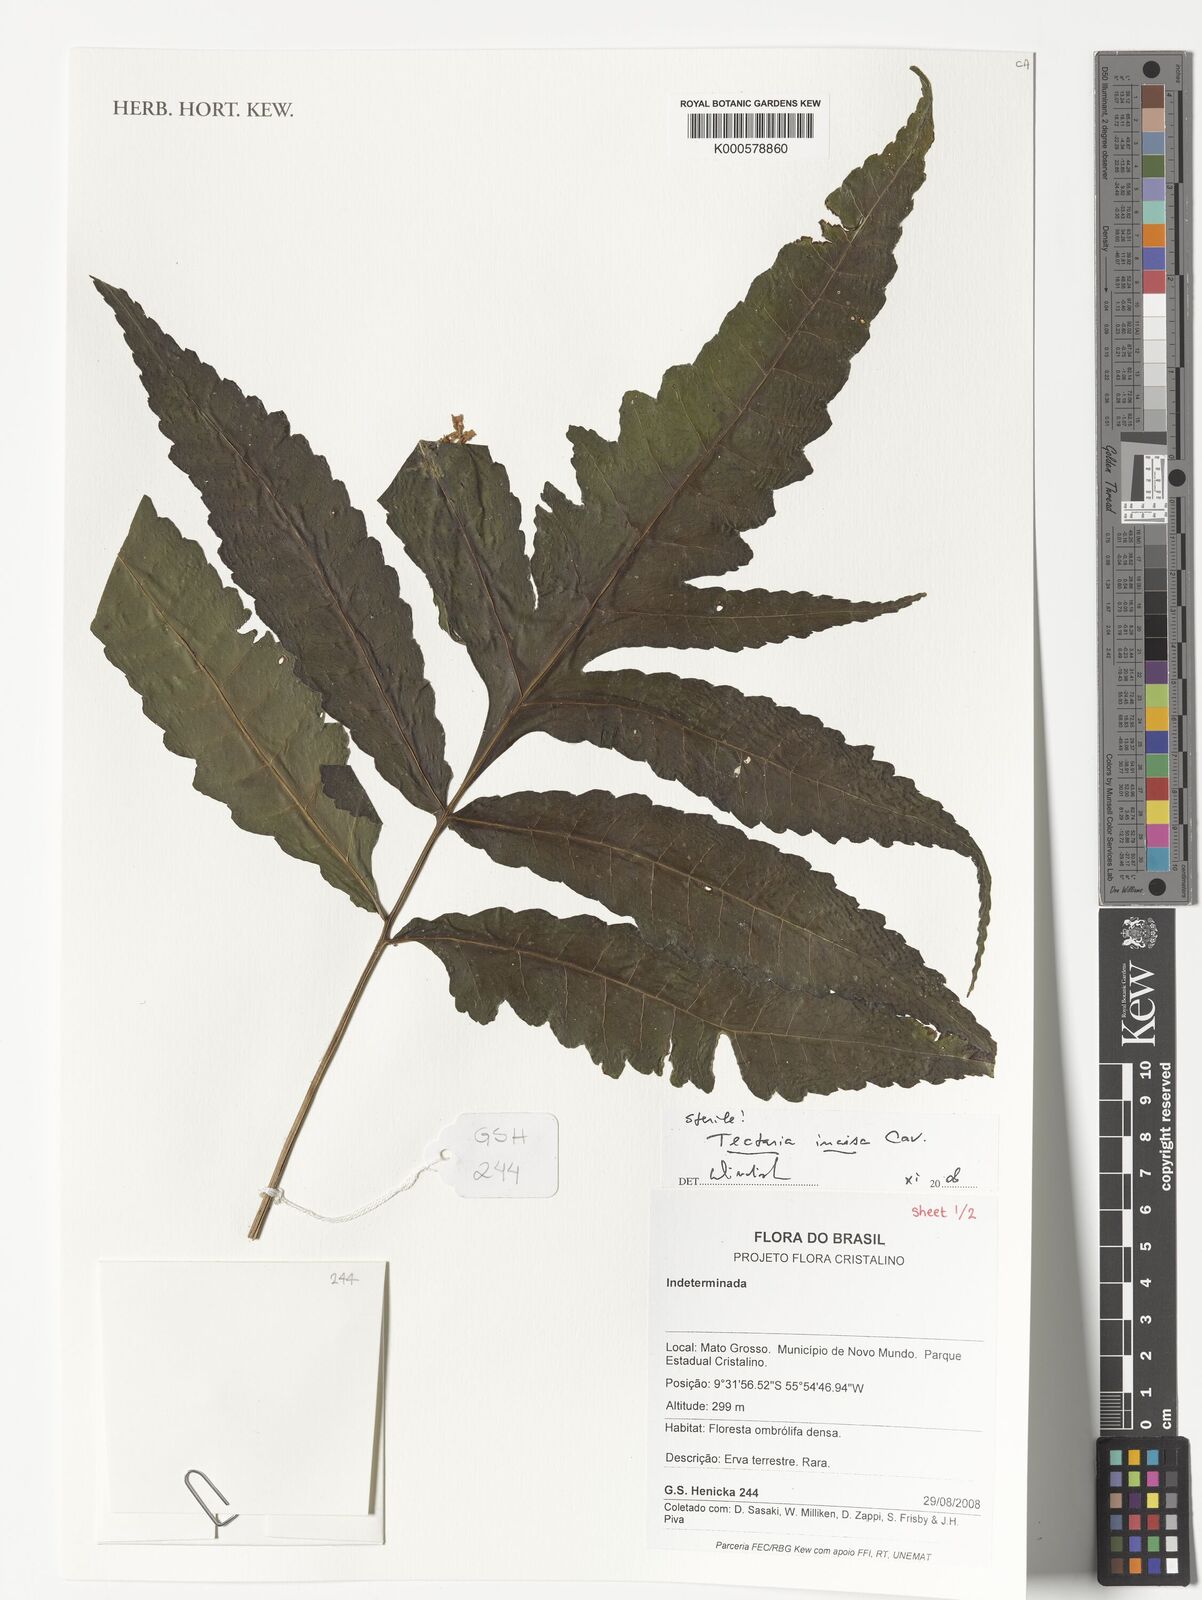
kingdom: Plantae
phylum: Tracheophyta
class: Polypodiopsida
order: Polypodiales
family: Tectariaceae
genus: Tectaria
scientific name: Tectaria incisa
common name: Incised halberd fern
